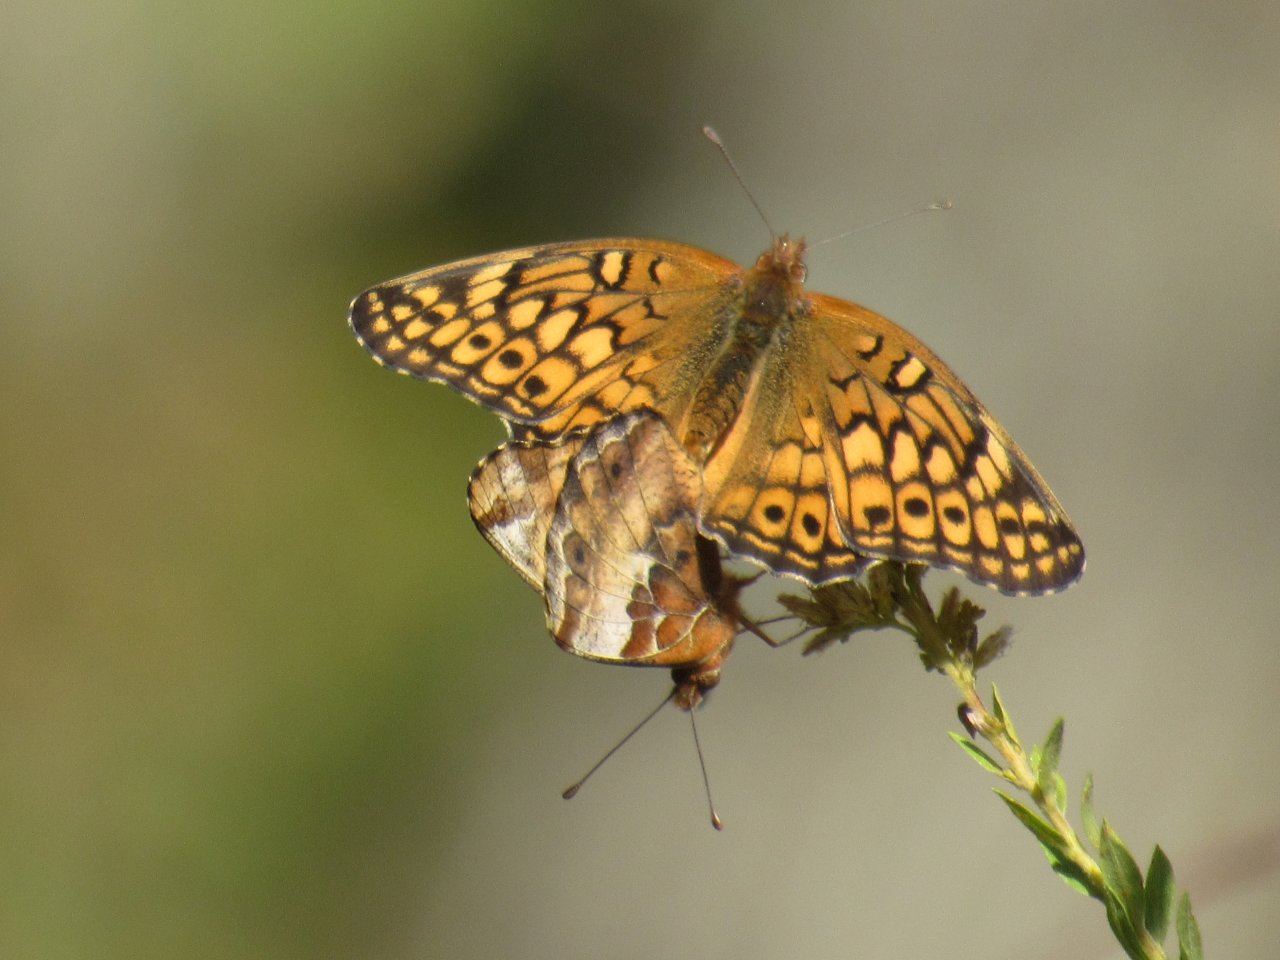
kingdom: Animalia
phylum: Arthropoda
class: Insecta
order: Lepidoptera
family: Nymphalidae
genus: Euptoieta
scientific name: Euptoieta claudia
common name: Variegated Fritillary
